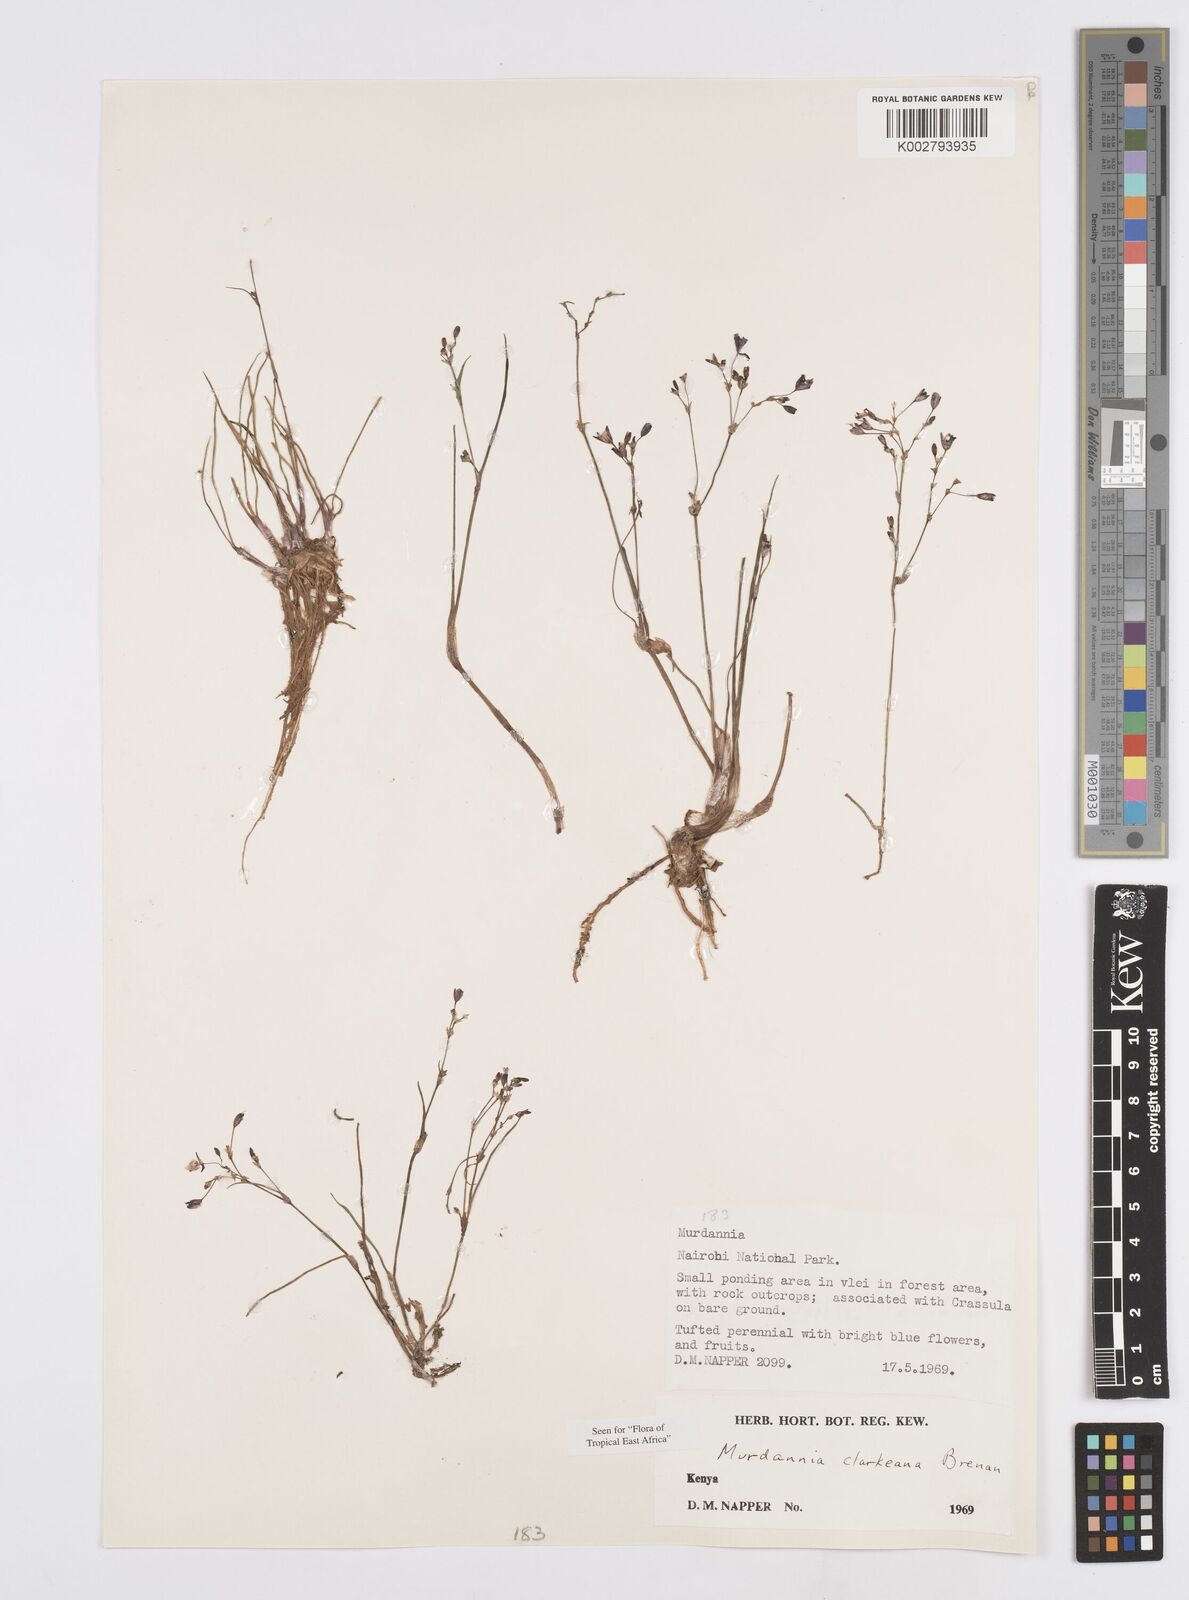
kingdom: Plantae
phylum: Tracheophyta
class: Liliopsida
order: Commelinales
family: Commelinaceae
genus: Murdannia
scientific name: Murdannia clarkeana
